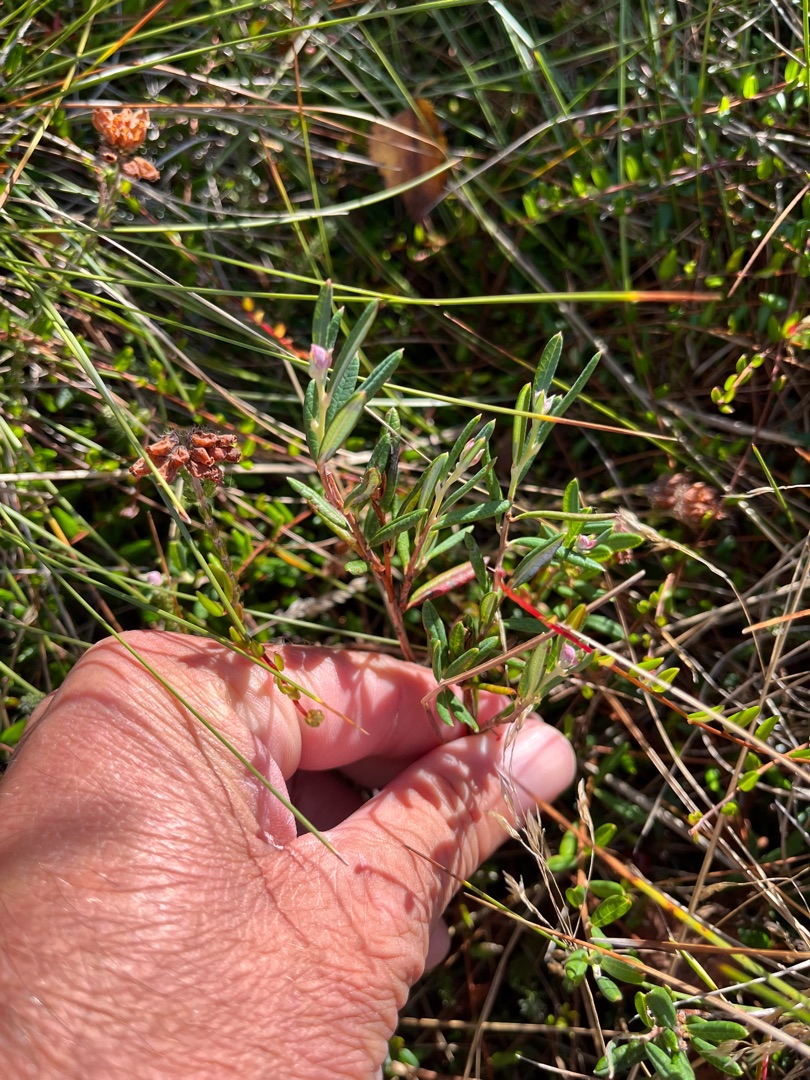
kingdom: Plantae
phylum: Tracheophyta
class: Magnoliopsida
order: Ericales
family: Ericaceae
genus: Andromeda
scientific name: Andromeda polifolia
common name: Rosmarinlyng
